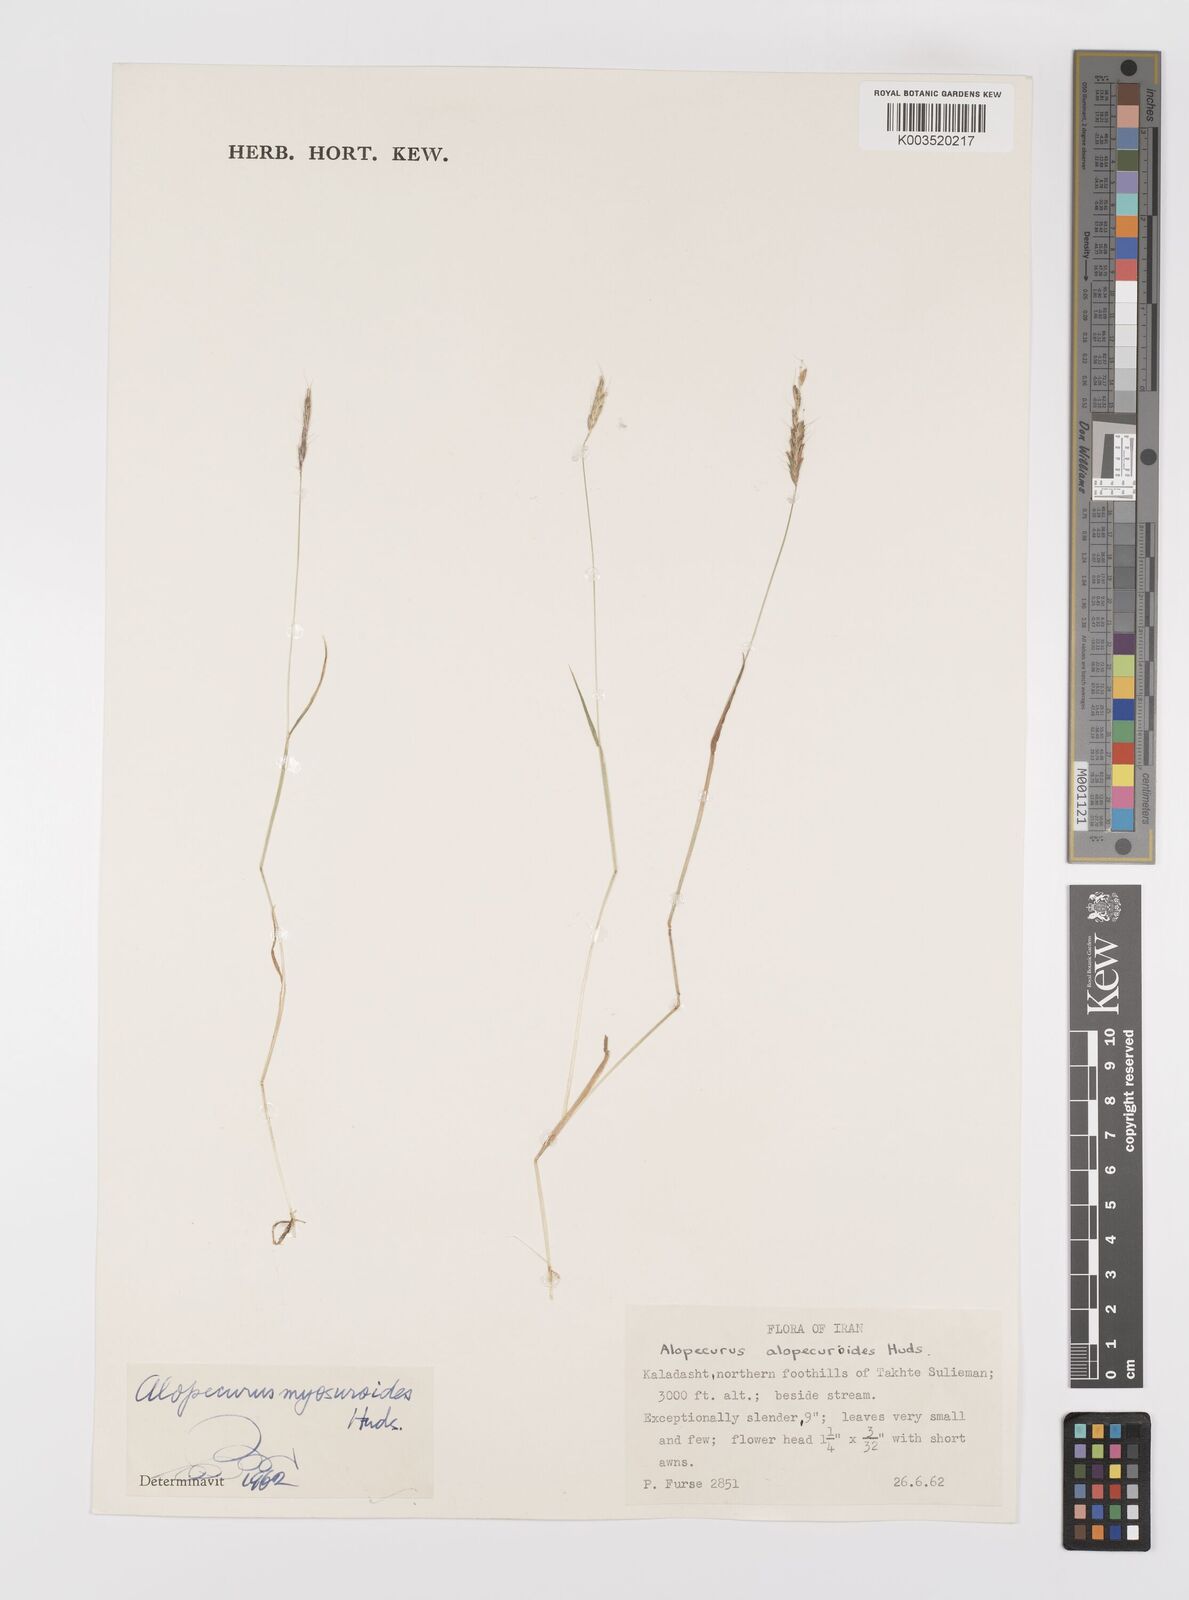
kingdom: Plantae
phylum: Tracheophyta
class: Liliopsida
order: Poales
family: Poaceae
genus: Alopecurus
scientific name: Alopecurus myosuroides
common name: Black-grass
